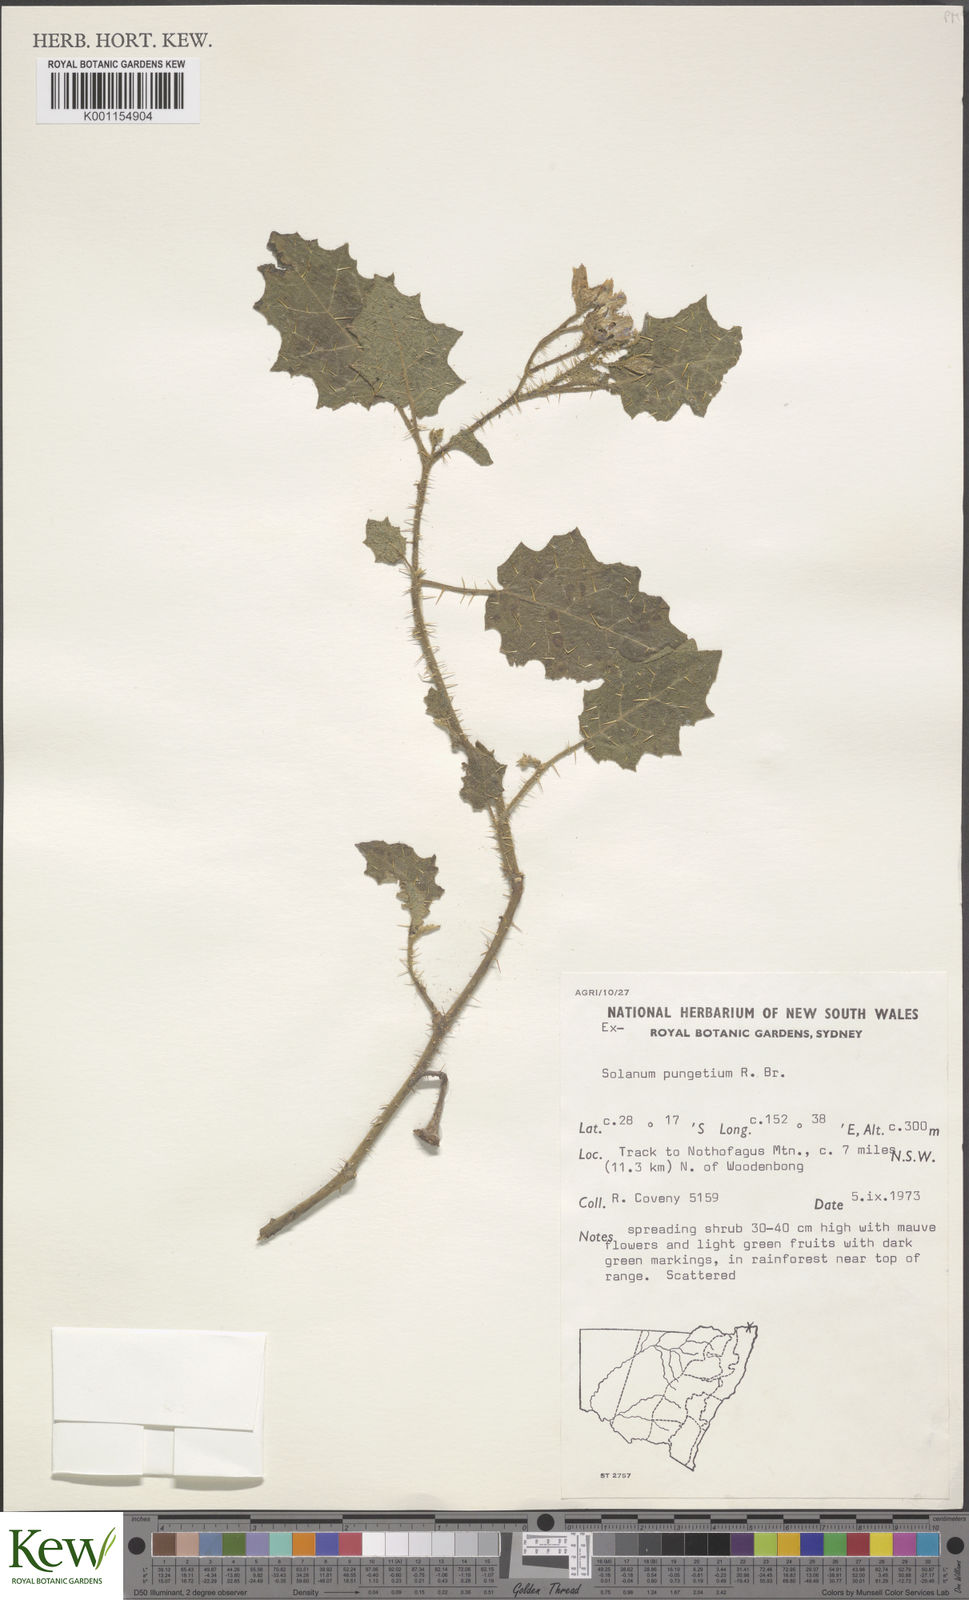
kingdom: Plantae
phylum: Tracheophyta
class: Magnoliopsida
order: Solanales
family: Solanaceae
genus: Solanum
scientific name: Solanum pungetium
